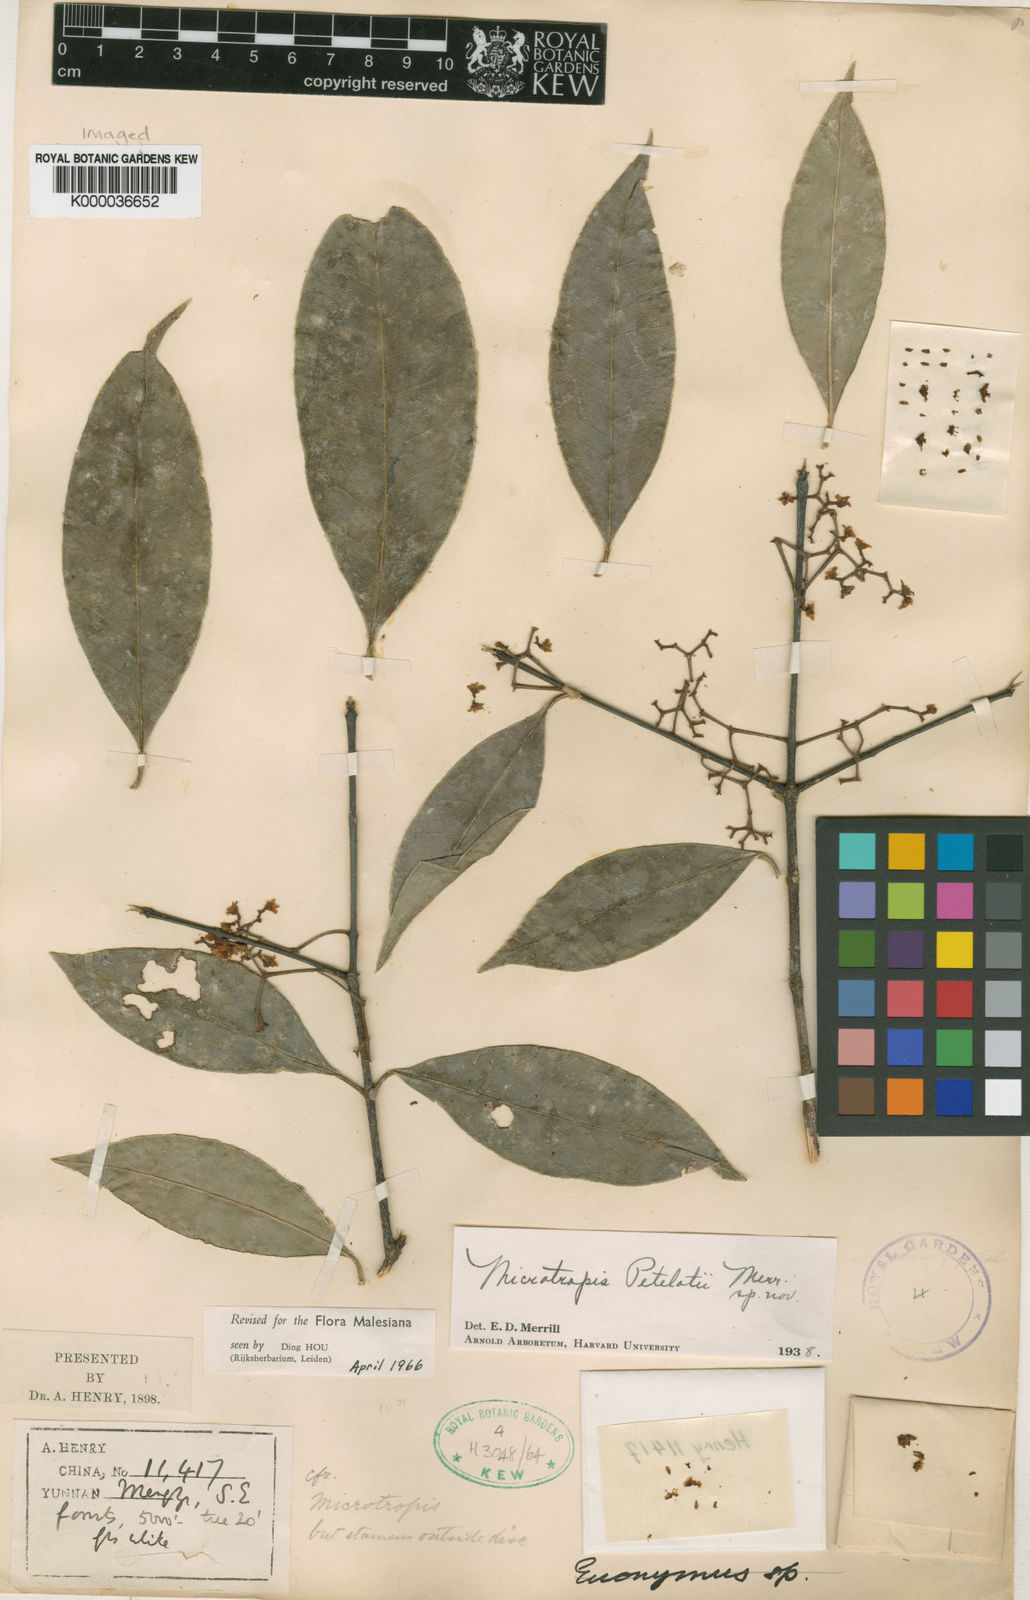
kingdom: Plantae
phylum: Tracheophyta
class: Magnoliopsida
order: Celastrales
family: Celastraceae
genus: Microtropis
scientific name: Microtropis petelotii
